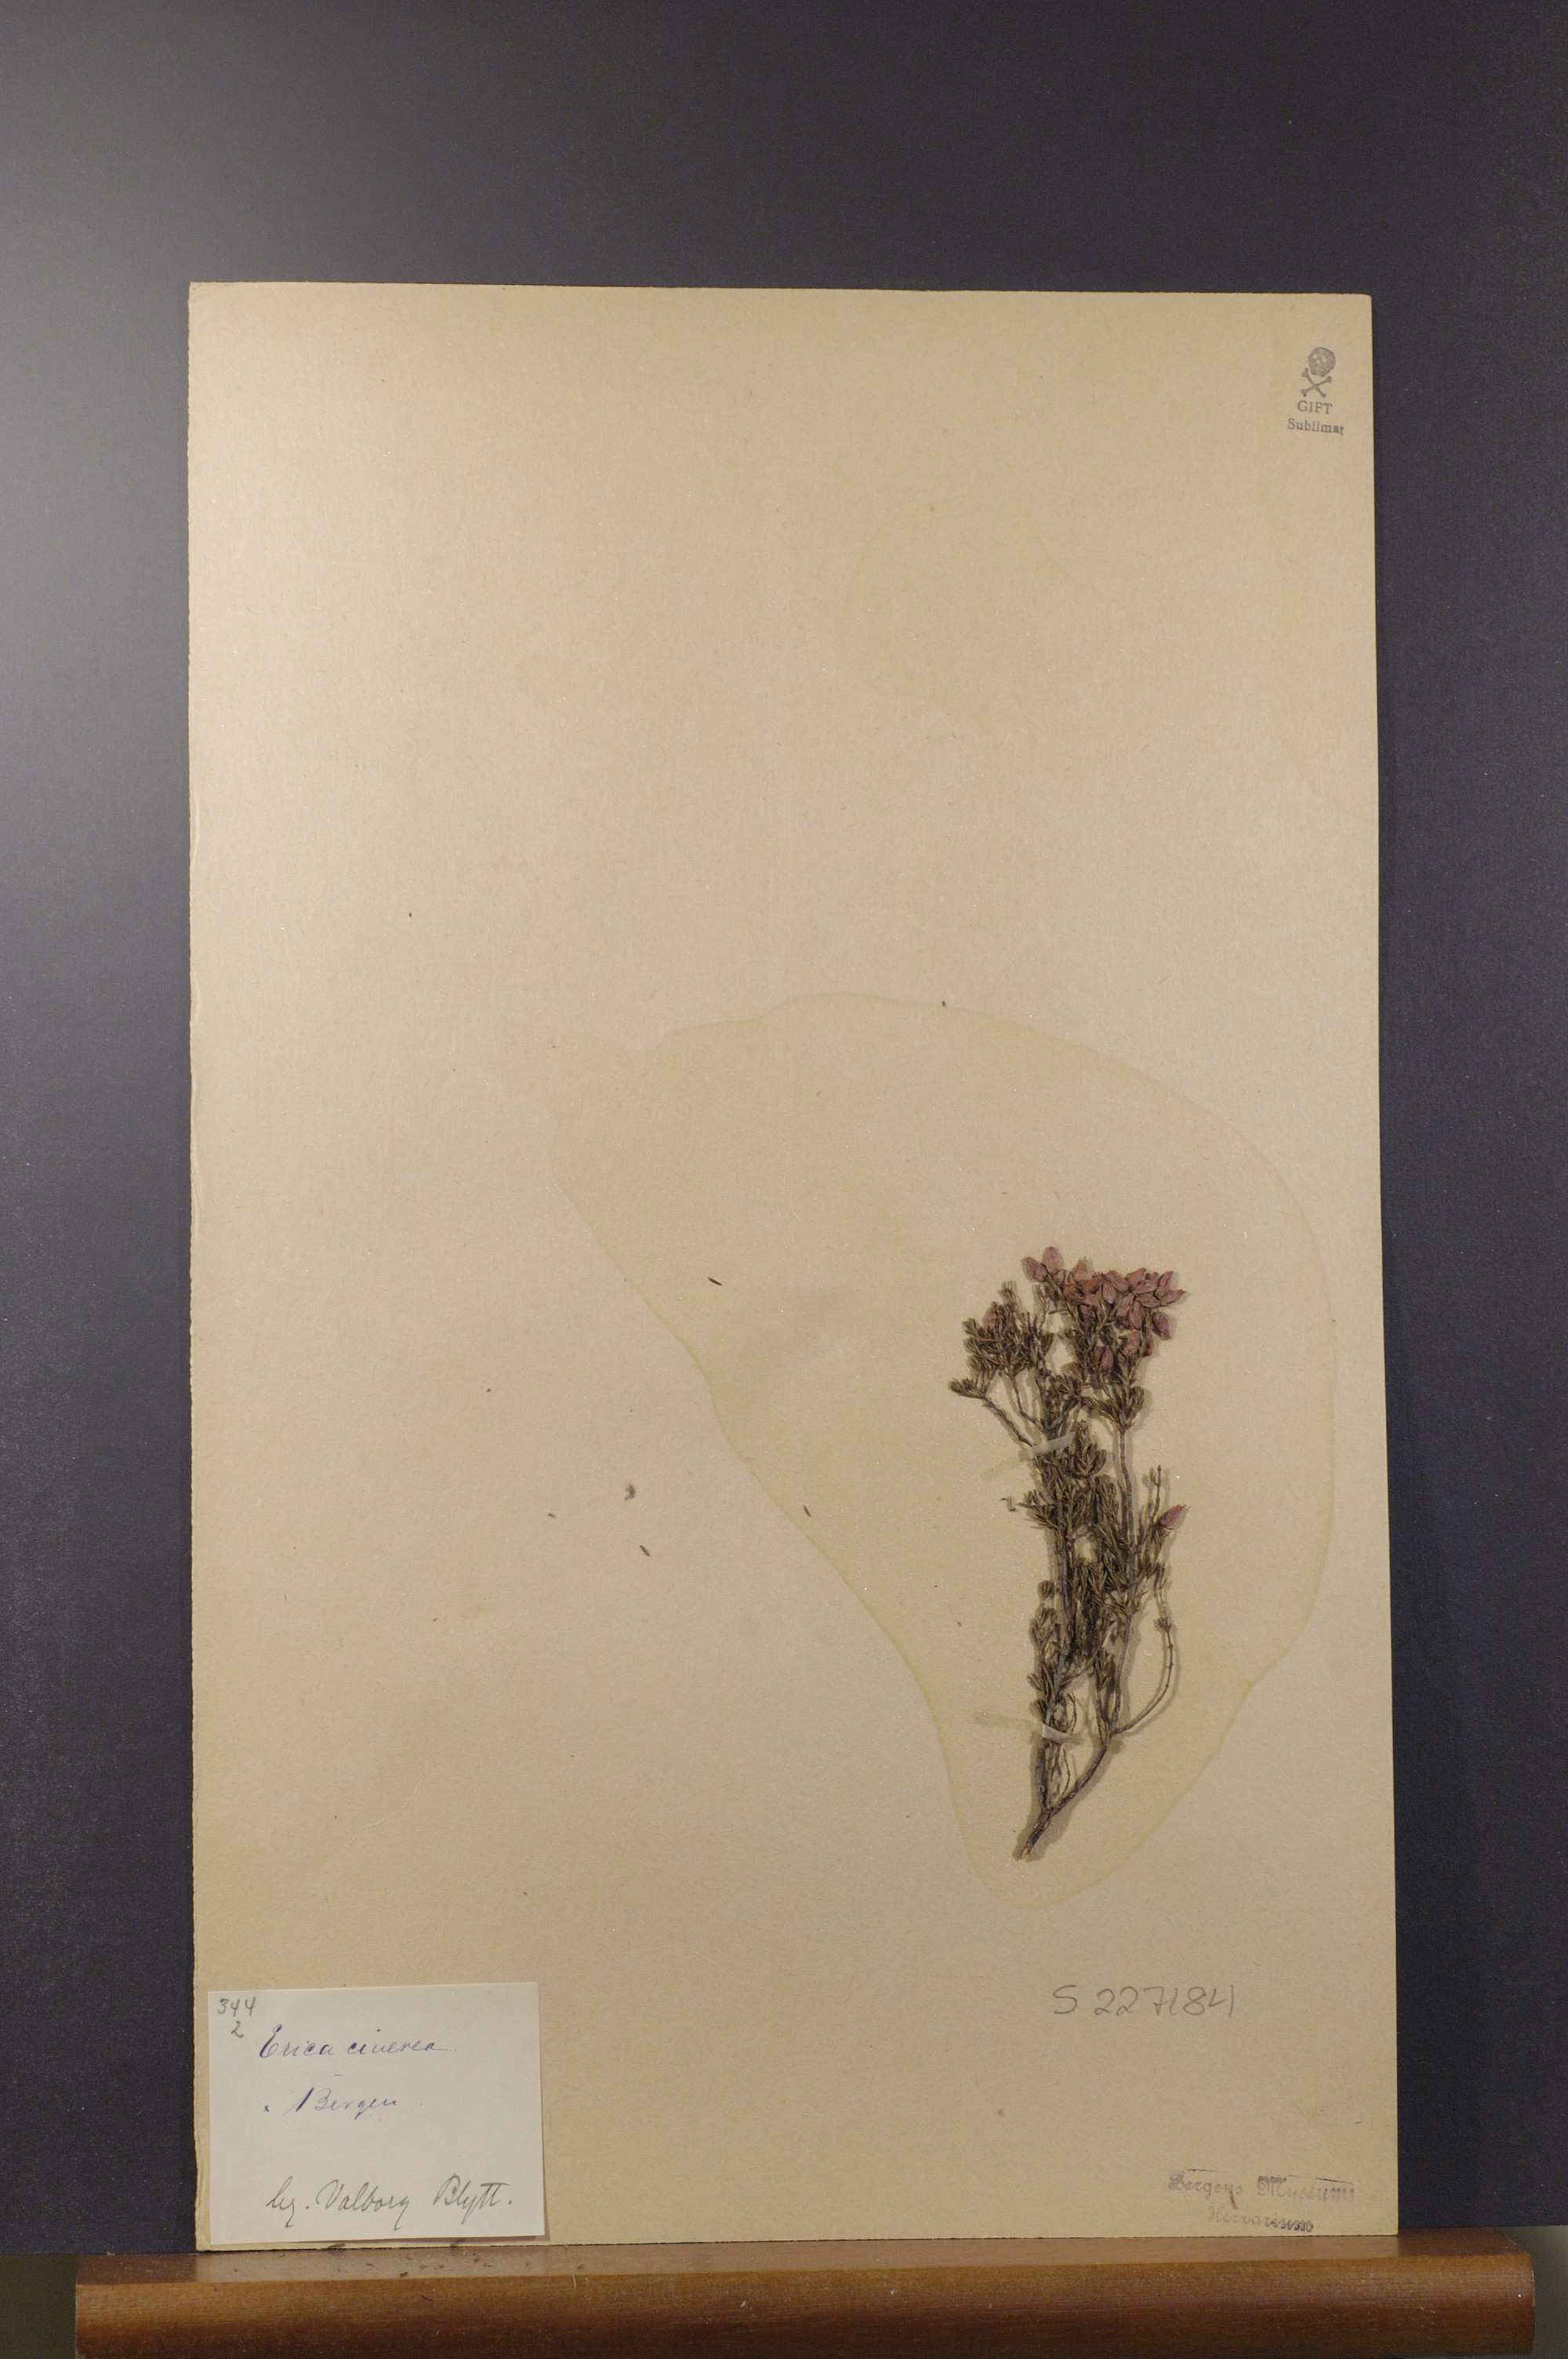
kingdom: Plantae
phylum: Tracheophyta
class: Magnoliopsida
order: Ericales
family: Ericaceae
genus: Erica
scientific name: Erica cinerea
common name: Bell heather
